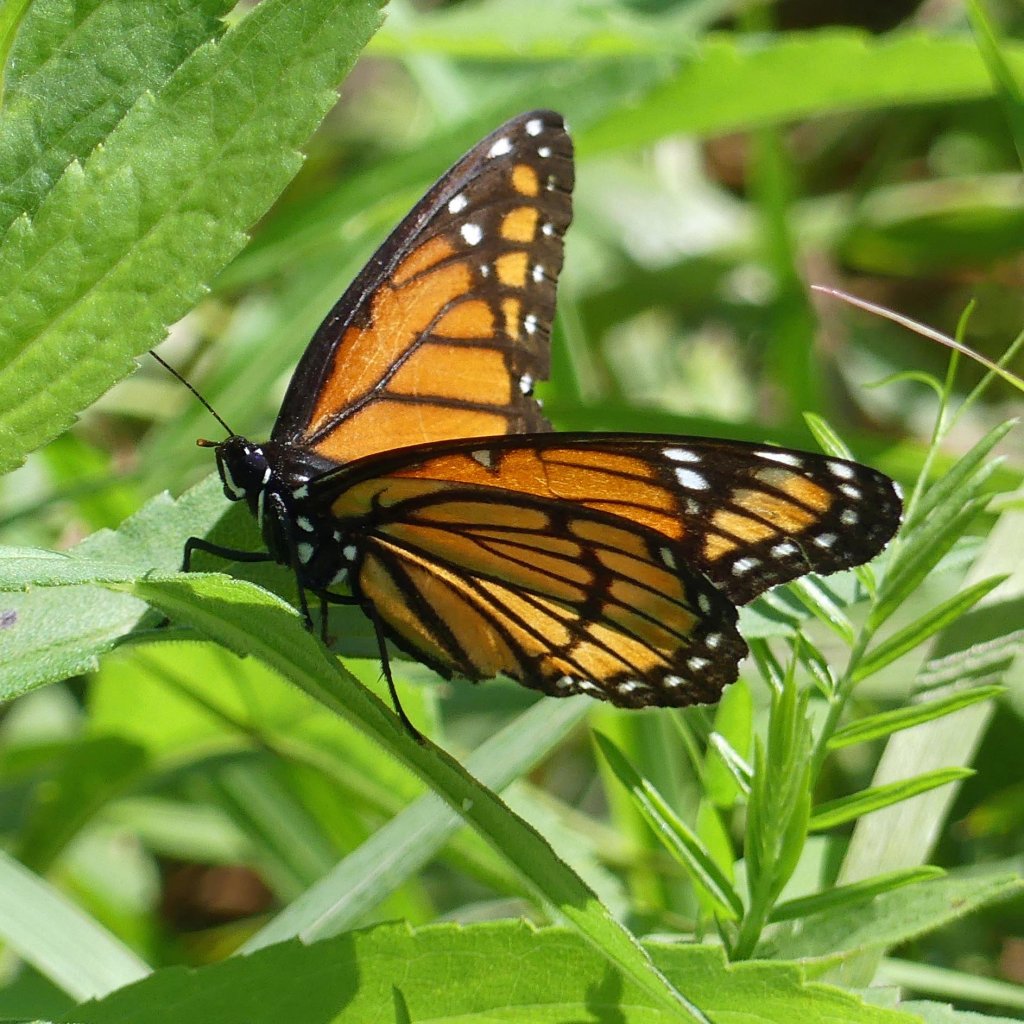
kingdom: Animalia
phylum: Arthropoda
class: Insecta
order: Lepidoptera
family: Nymphalidae
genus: Limenitis
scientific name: Limenitis archippus
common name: Viceroy
